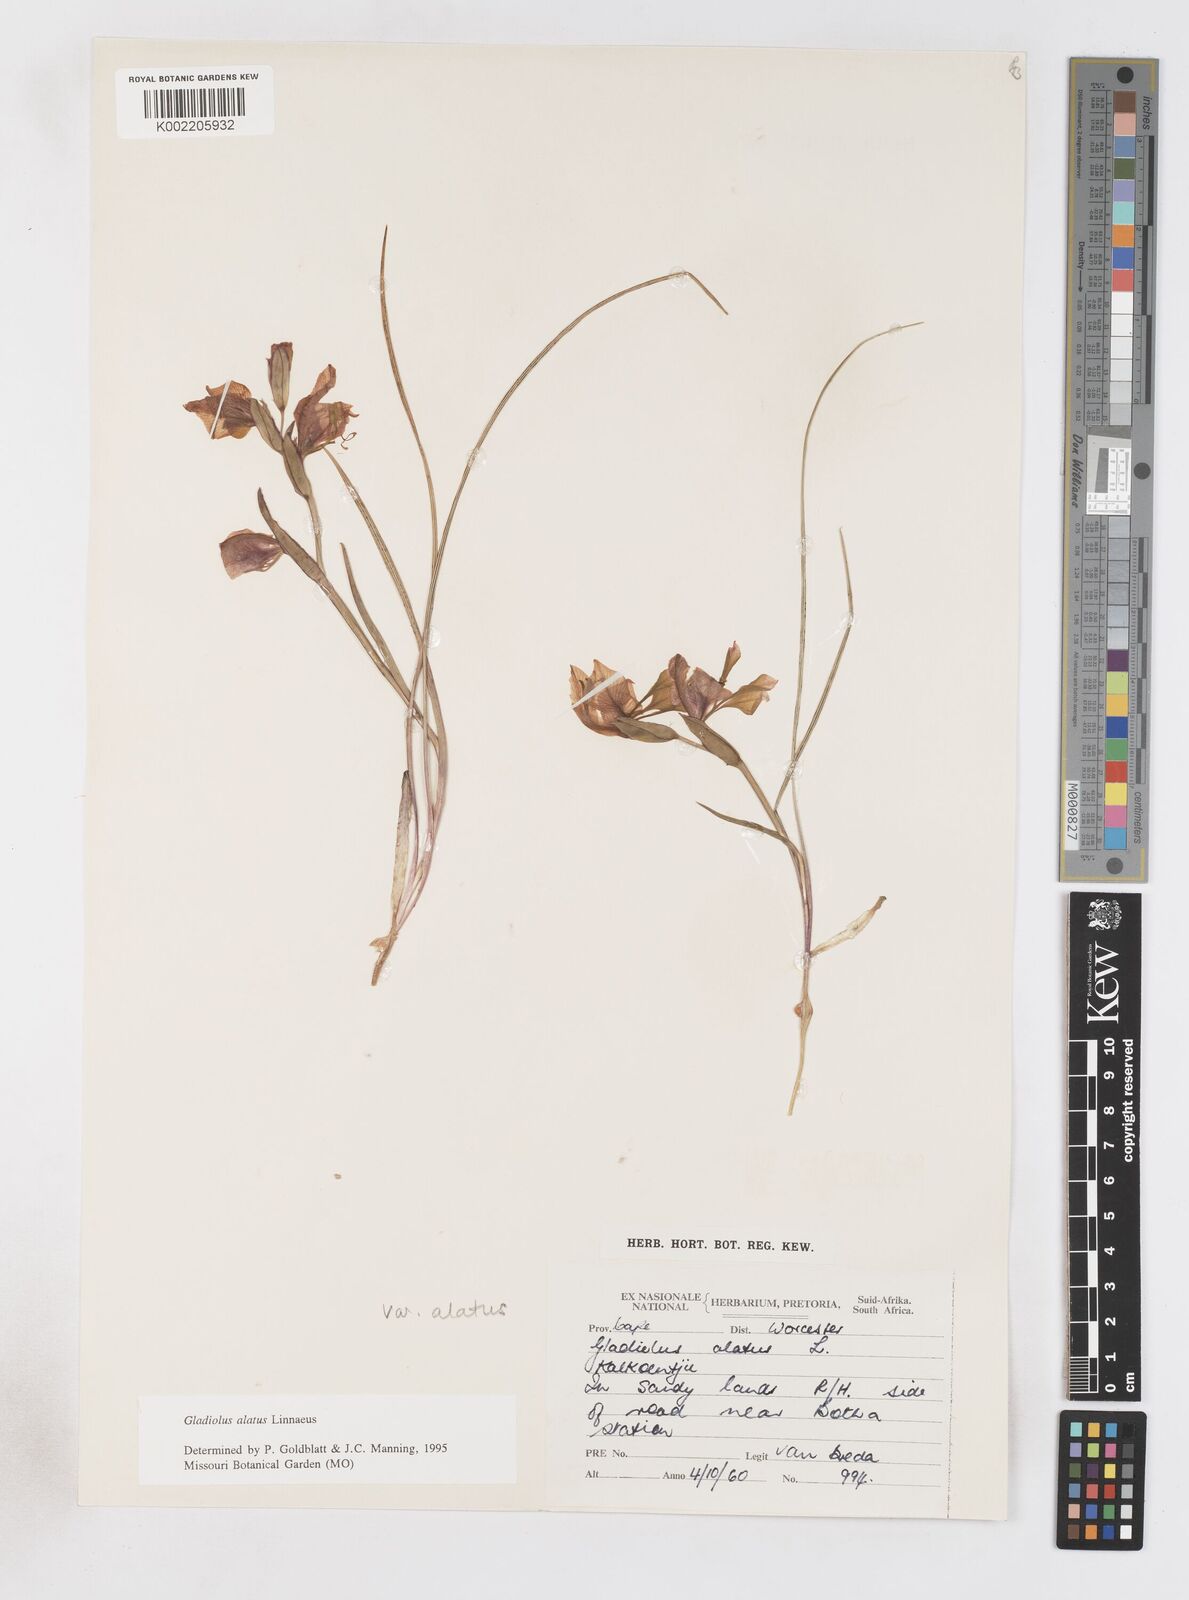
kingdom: Plantae
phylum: Tracheophyta
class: Liliopsida
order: Asparagales
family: Iridaceae
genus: Gladiolus
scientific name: Gladiolus alatus
